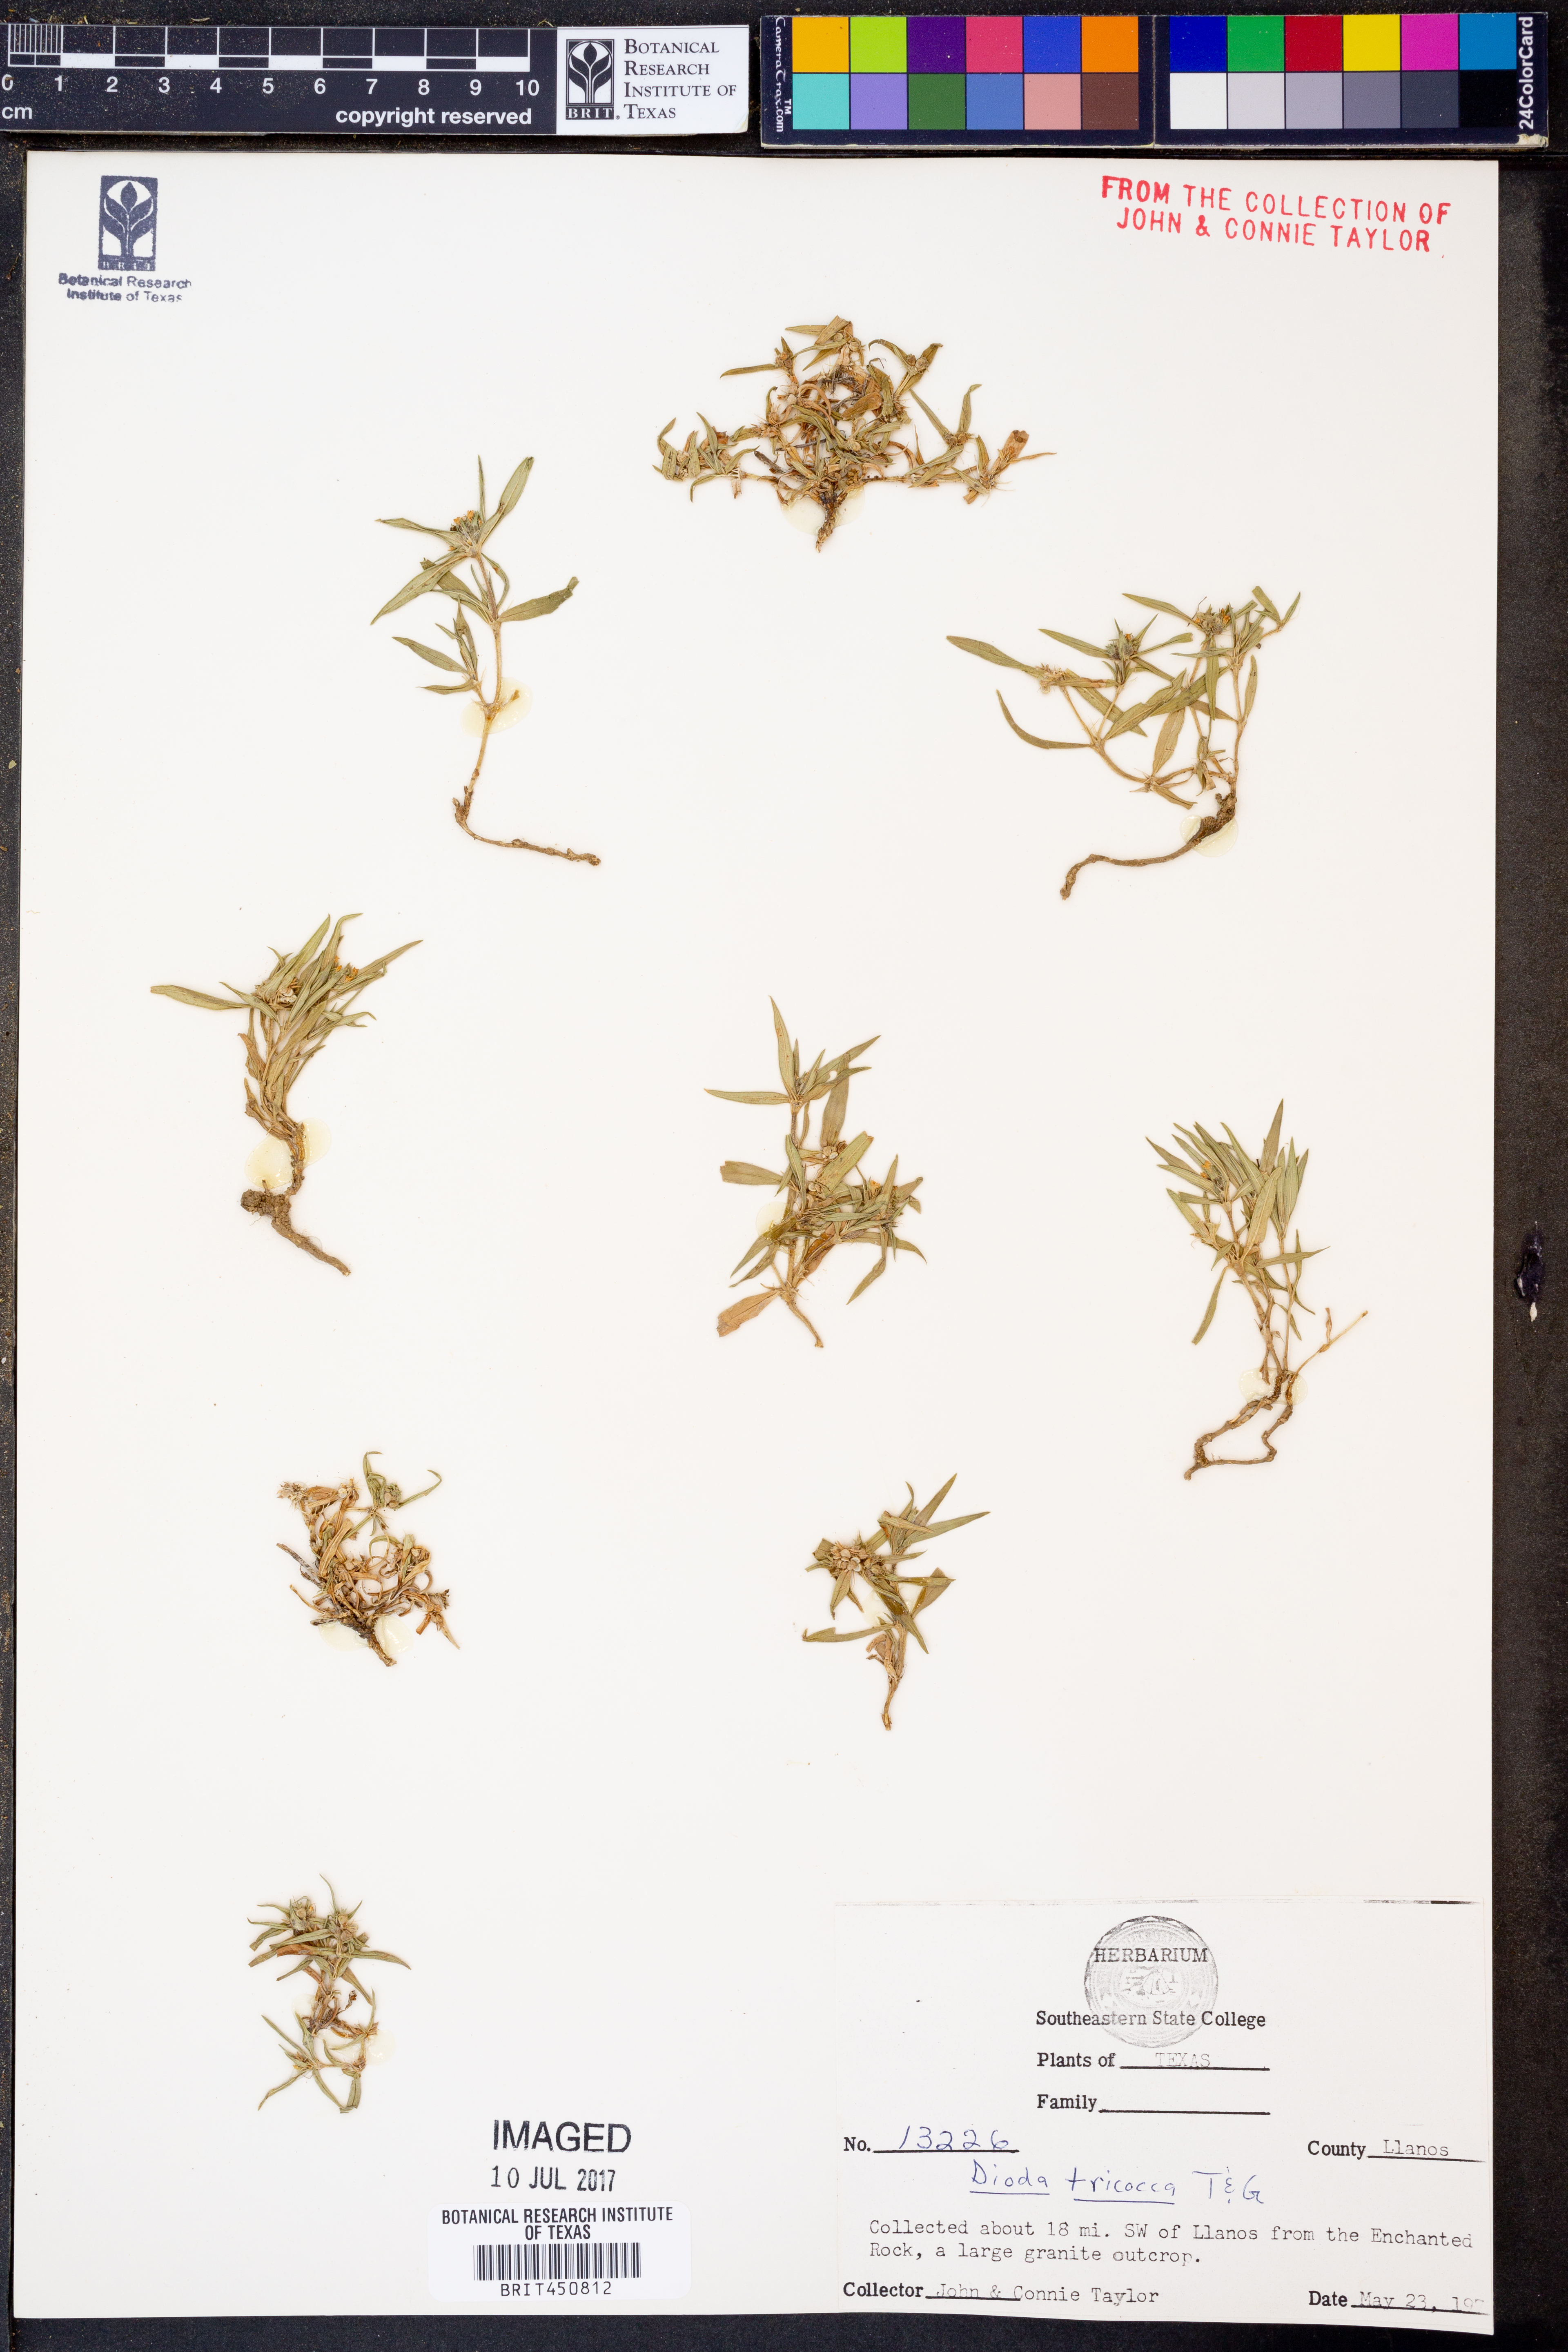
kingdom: Plantae
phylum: Tracheophyta
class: Magnoliopsida
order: Gentianales
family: Rubiaceae
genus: Richardia
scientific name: Richardia tricocca
